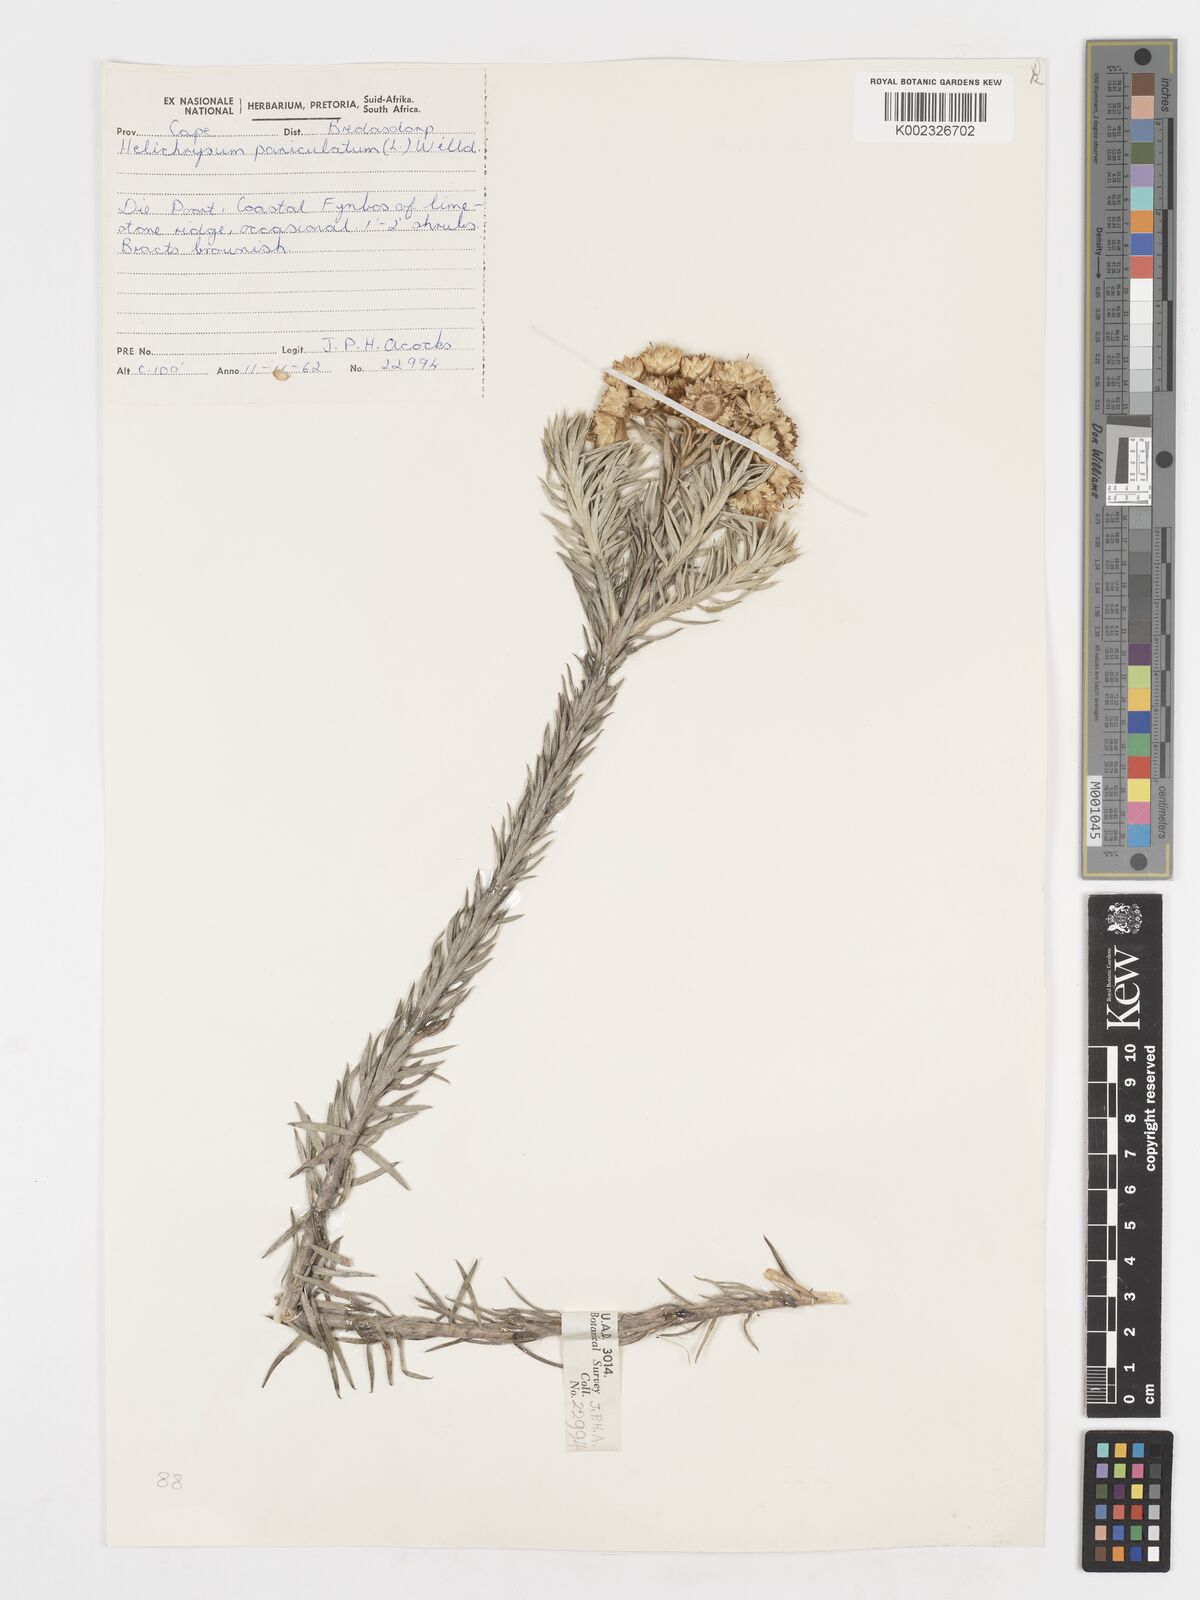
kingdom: Plantae
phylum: Tracheophyta
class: Magnoliopsida
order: Asterales
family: Asteraceae
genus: Achyranthemum
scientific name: Achyranthemum paniculatum
